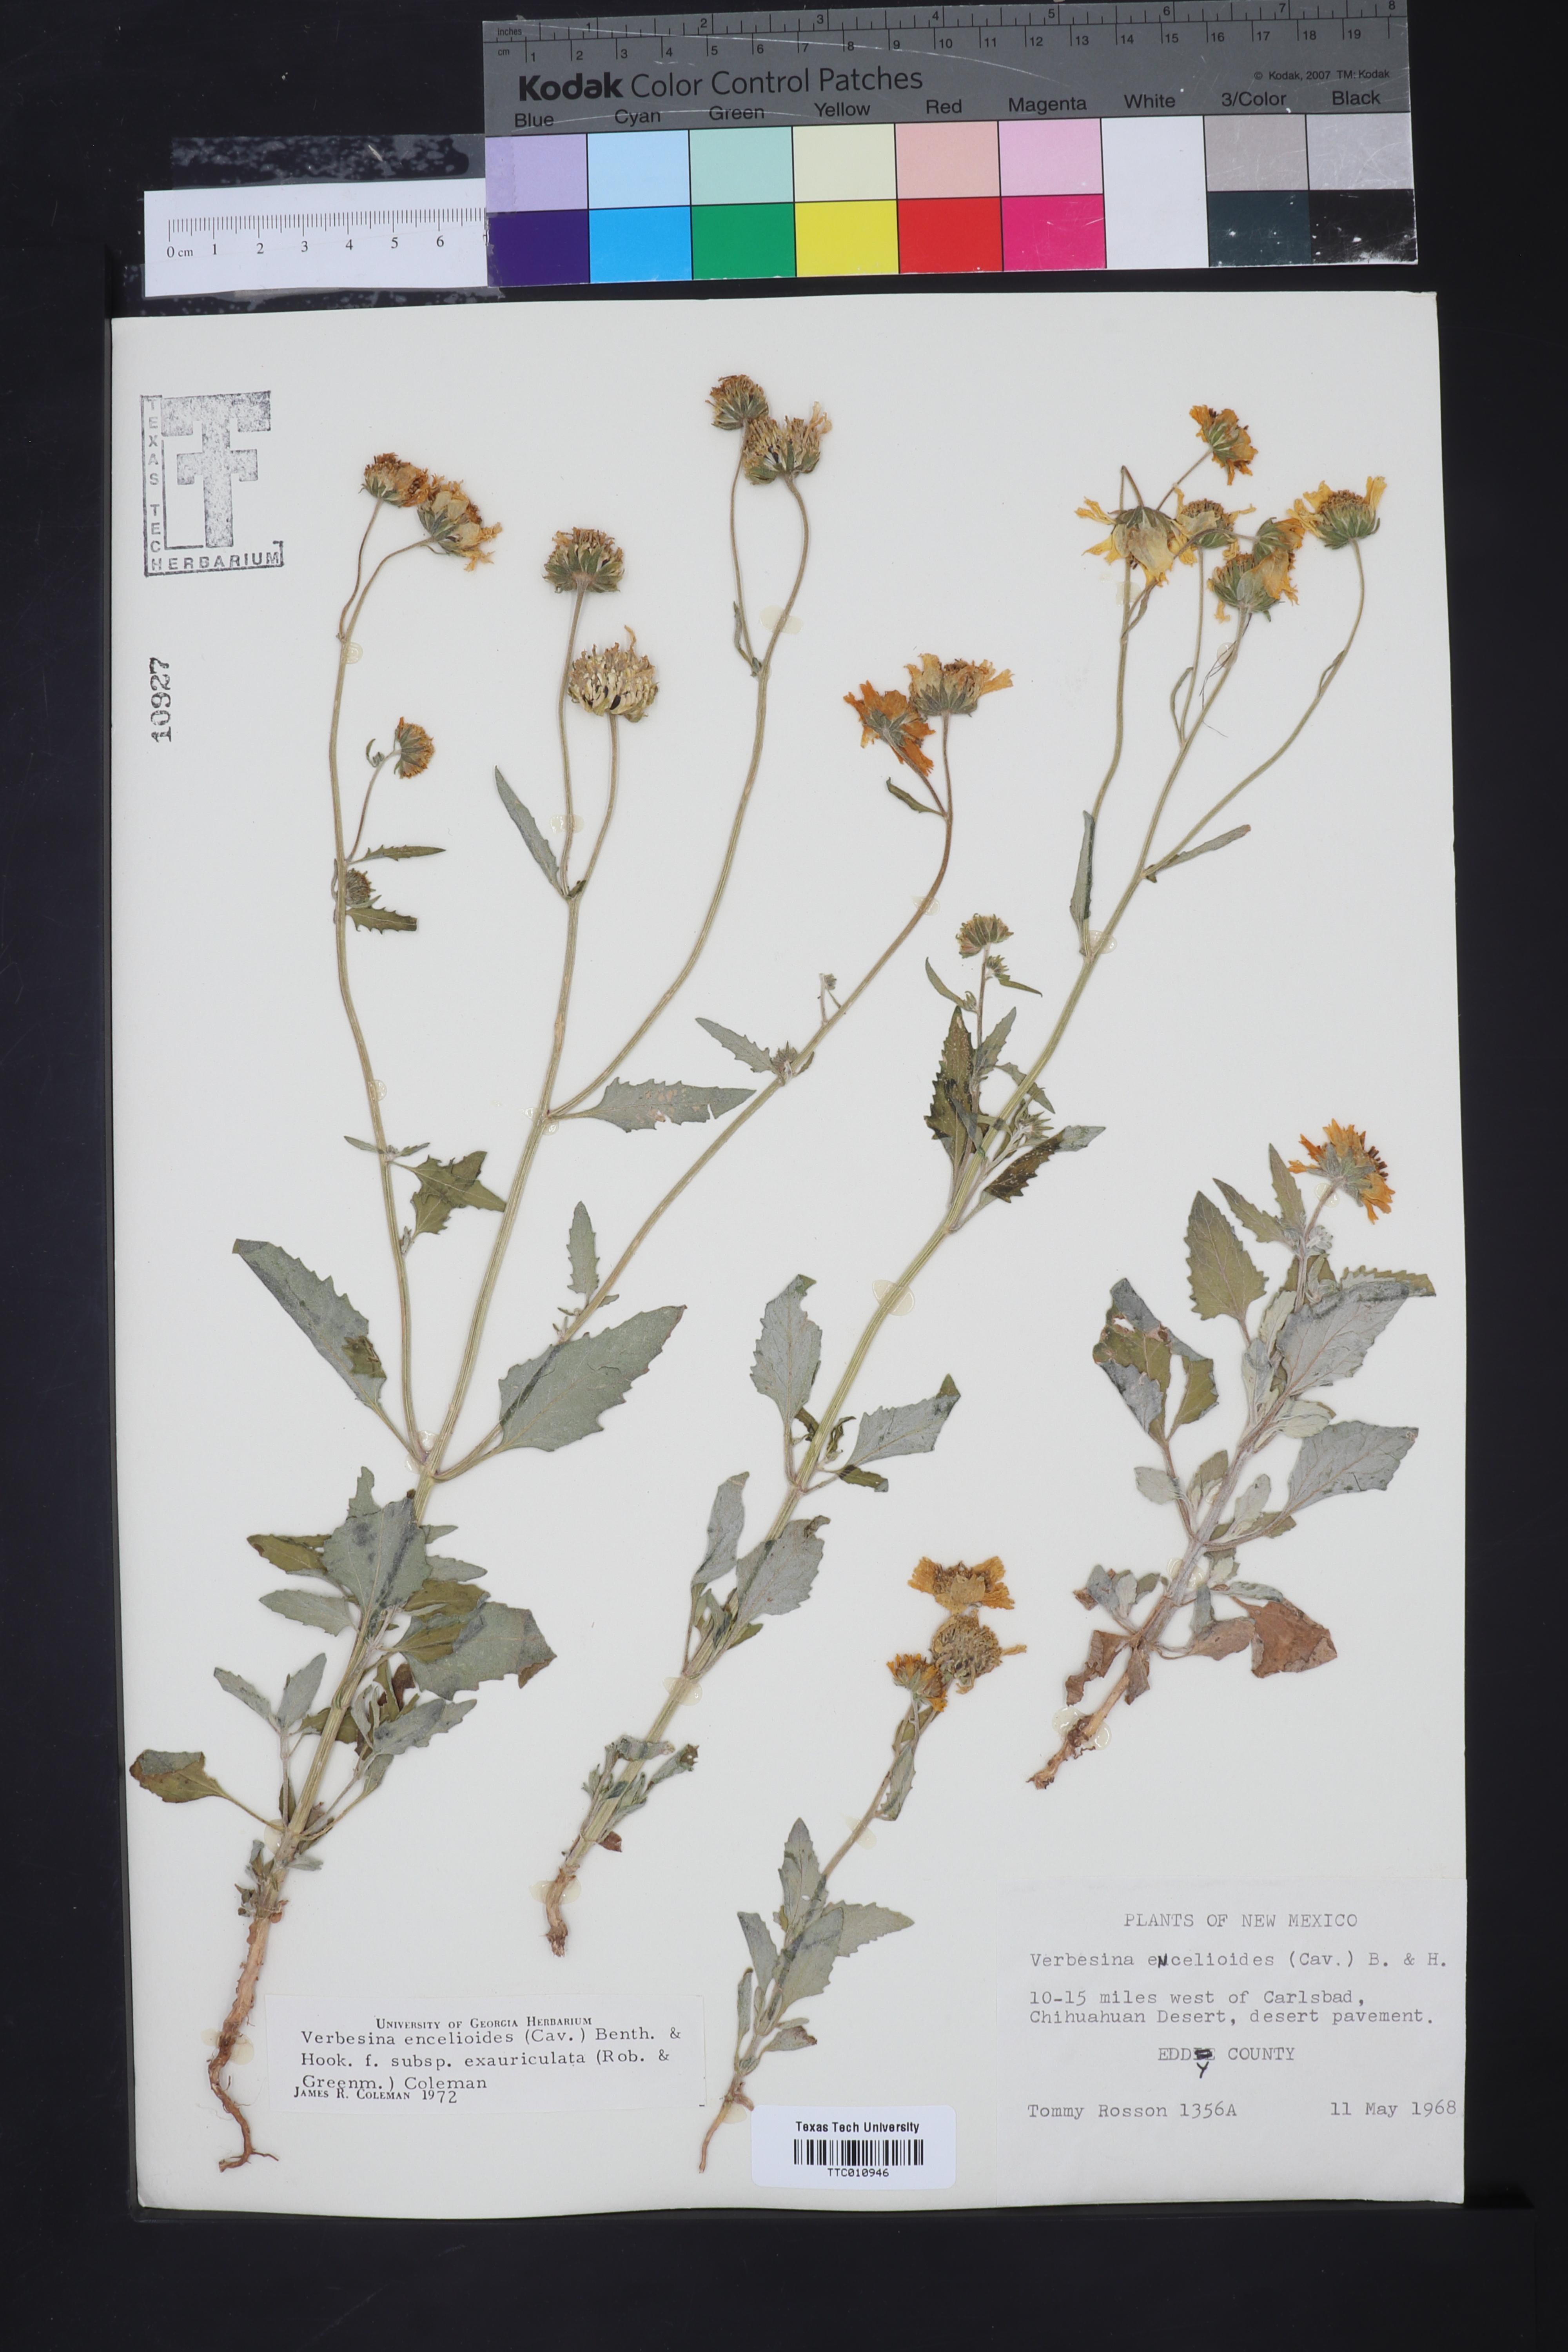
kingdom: Plantae
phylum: Tracheophyta
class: Magnoliopsida
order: Asterales
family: Asteraceae
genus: Verbesina
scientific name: Verbesina encelioides
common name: Golden crownbeard
